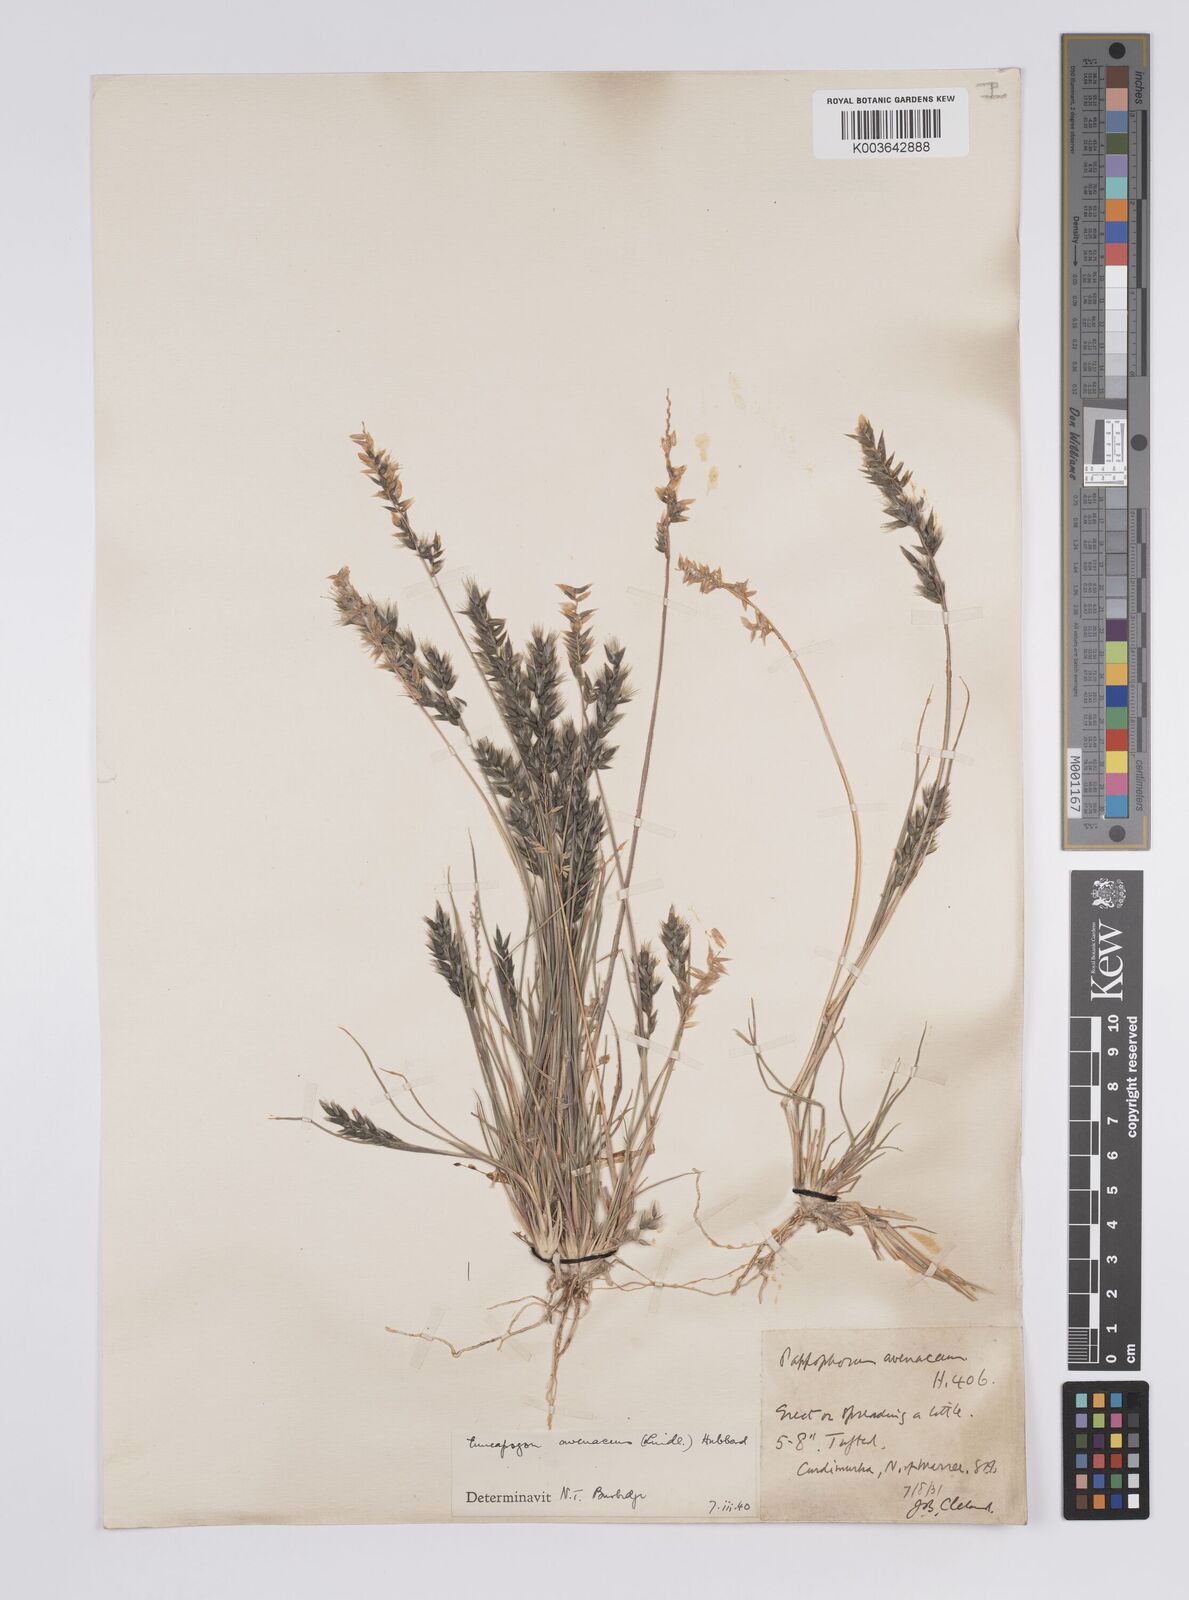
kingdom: Plantae
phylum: Tracheophyta
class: Liliopsida
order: Poales
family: Poaceae
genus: Enneapogon
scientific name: Enneapogon avenaceus
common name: Hairy oat grass
